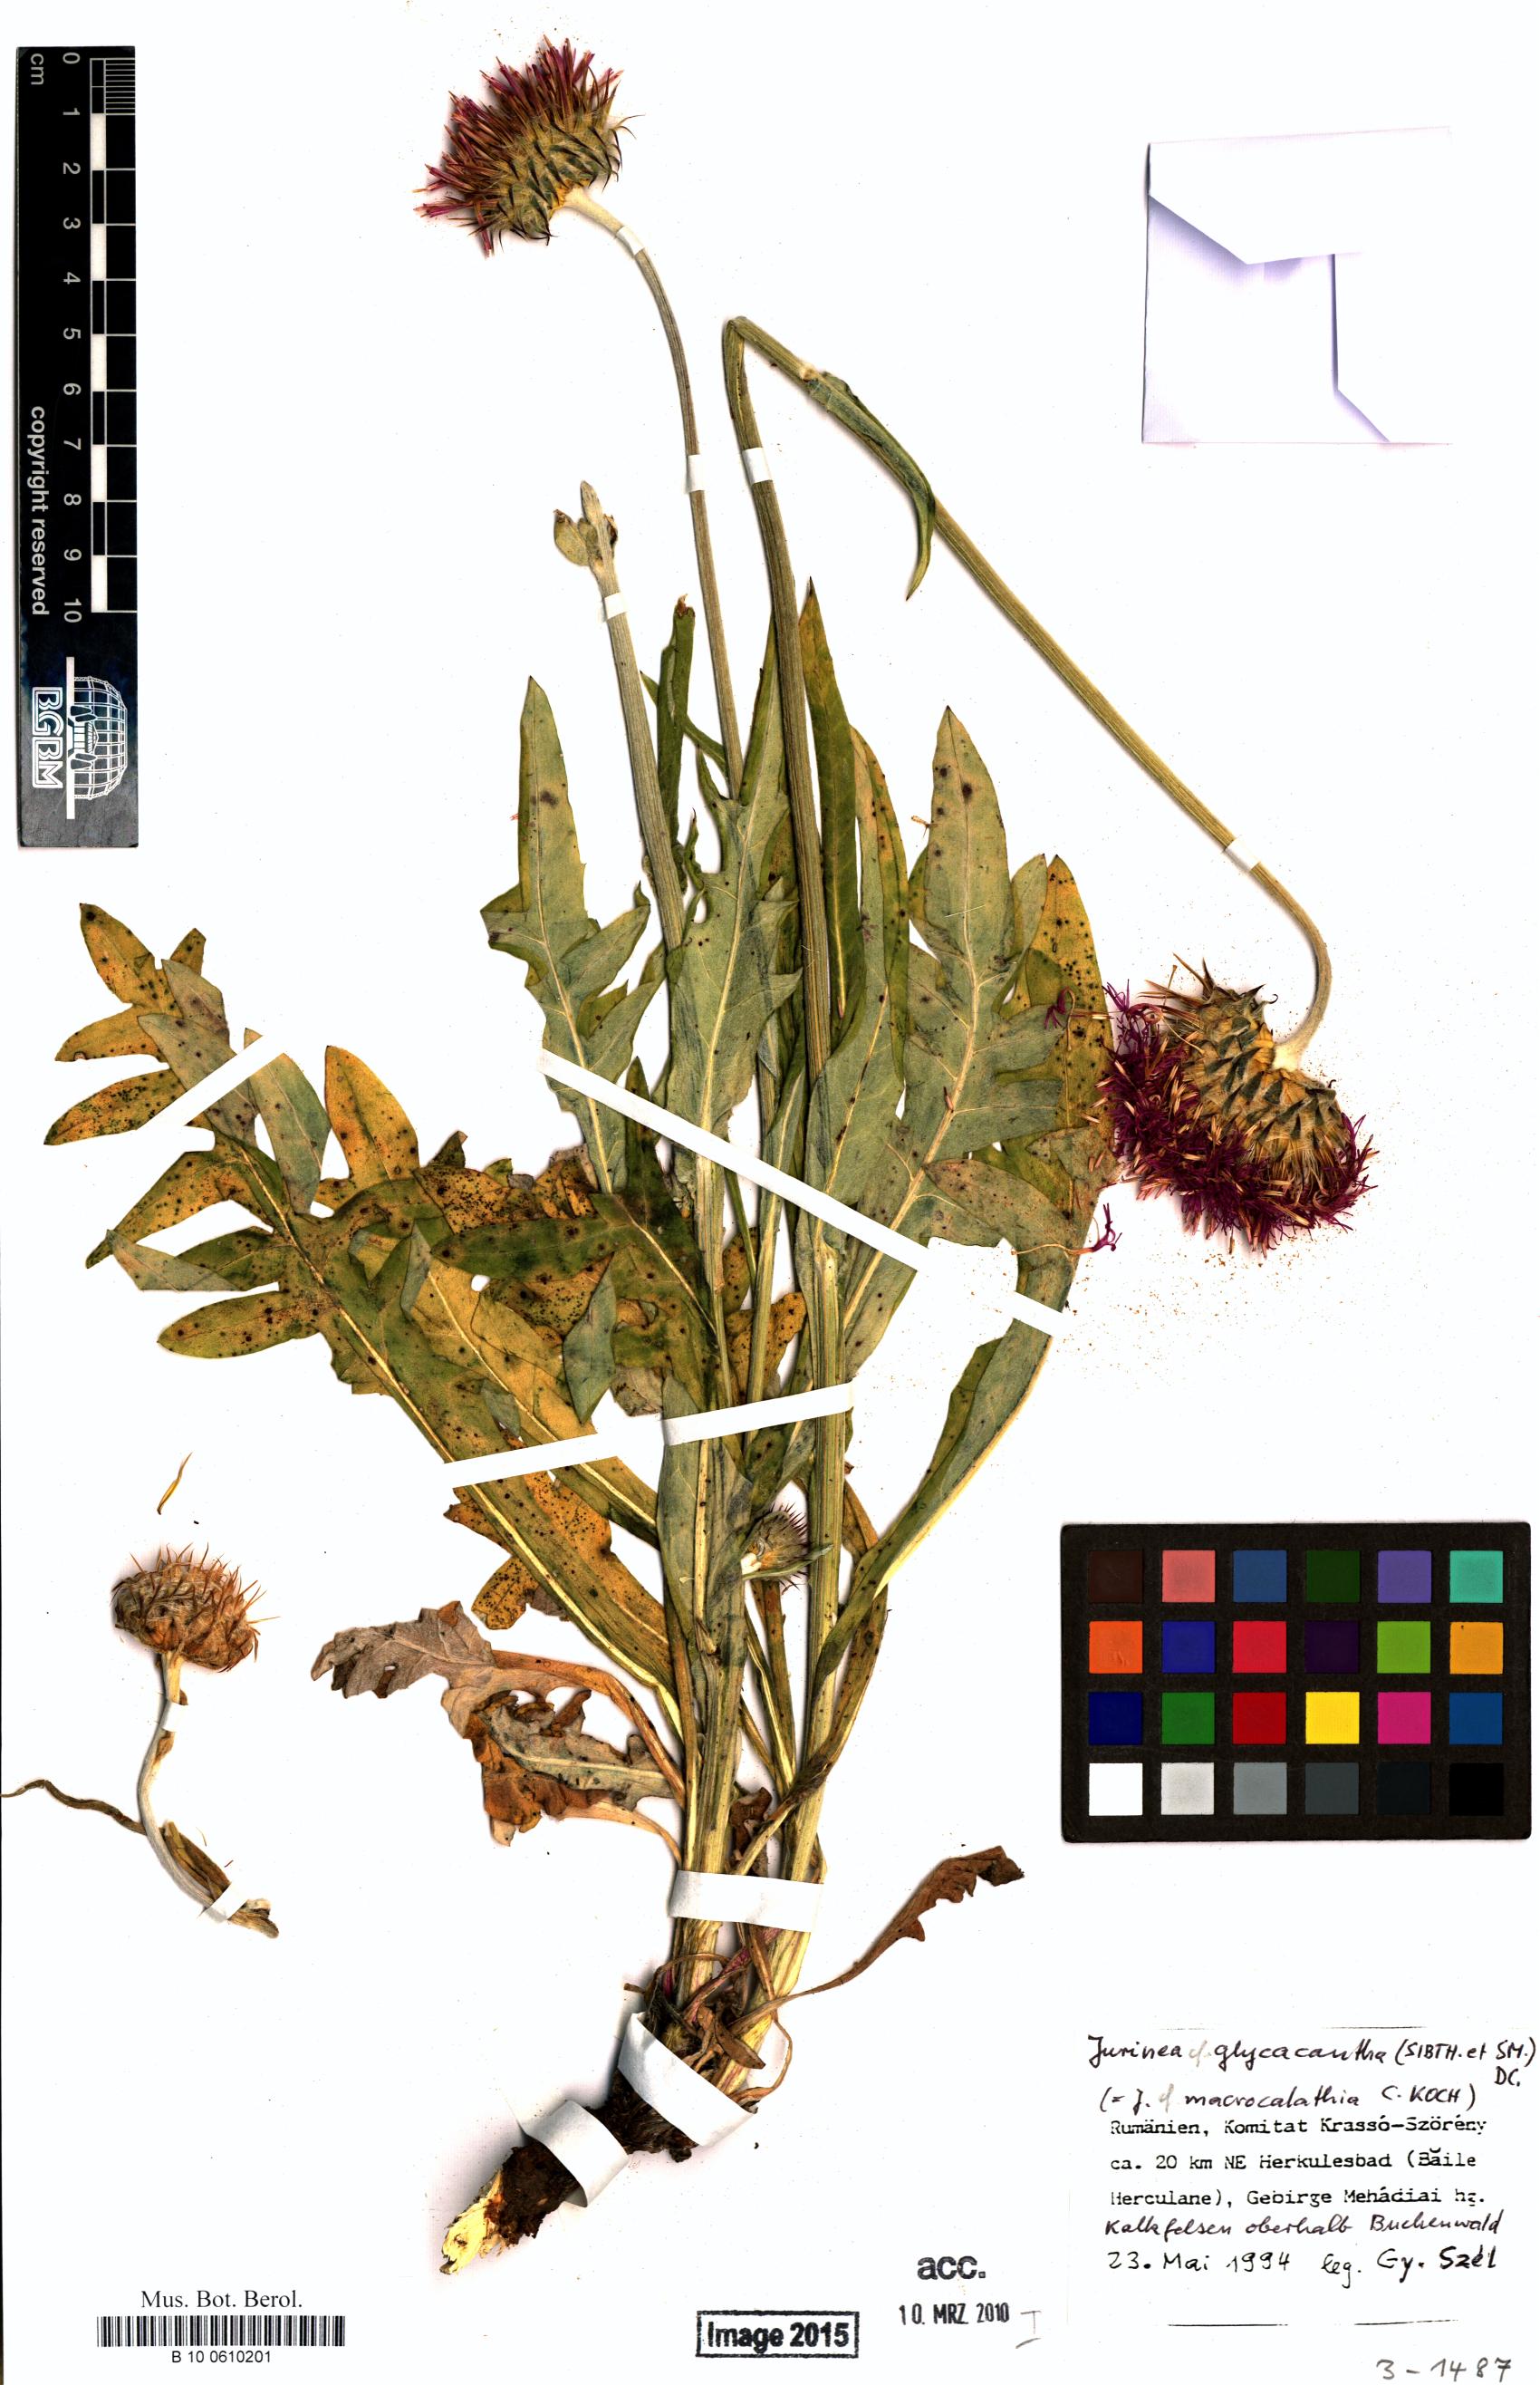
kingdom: Plantae
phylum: Tracheophyta
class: Magnoliopsida
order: Asterales
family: Asteraceae
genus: Jurinea
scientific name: Jurinea glycacantha
